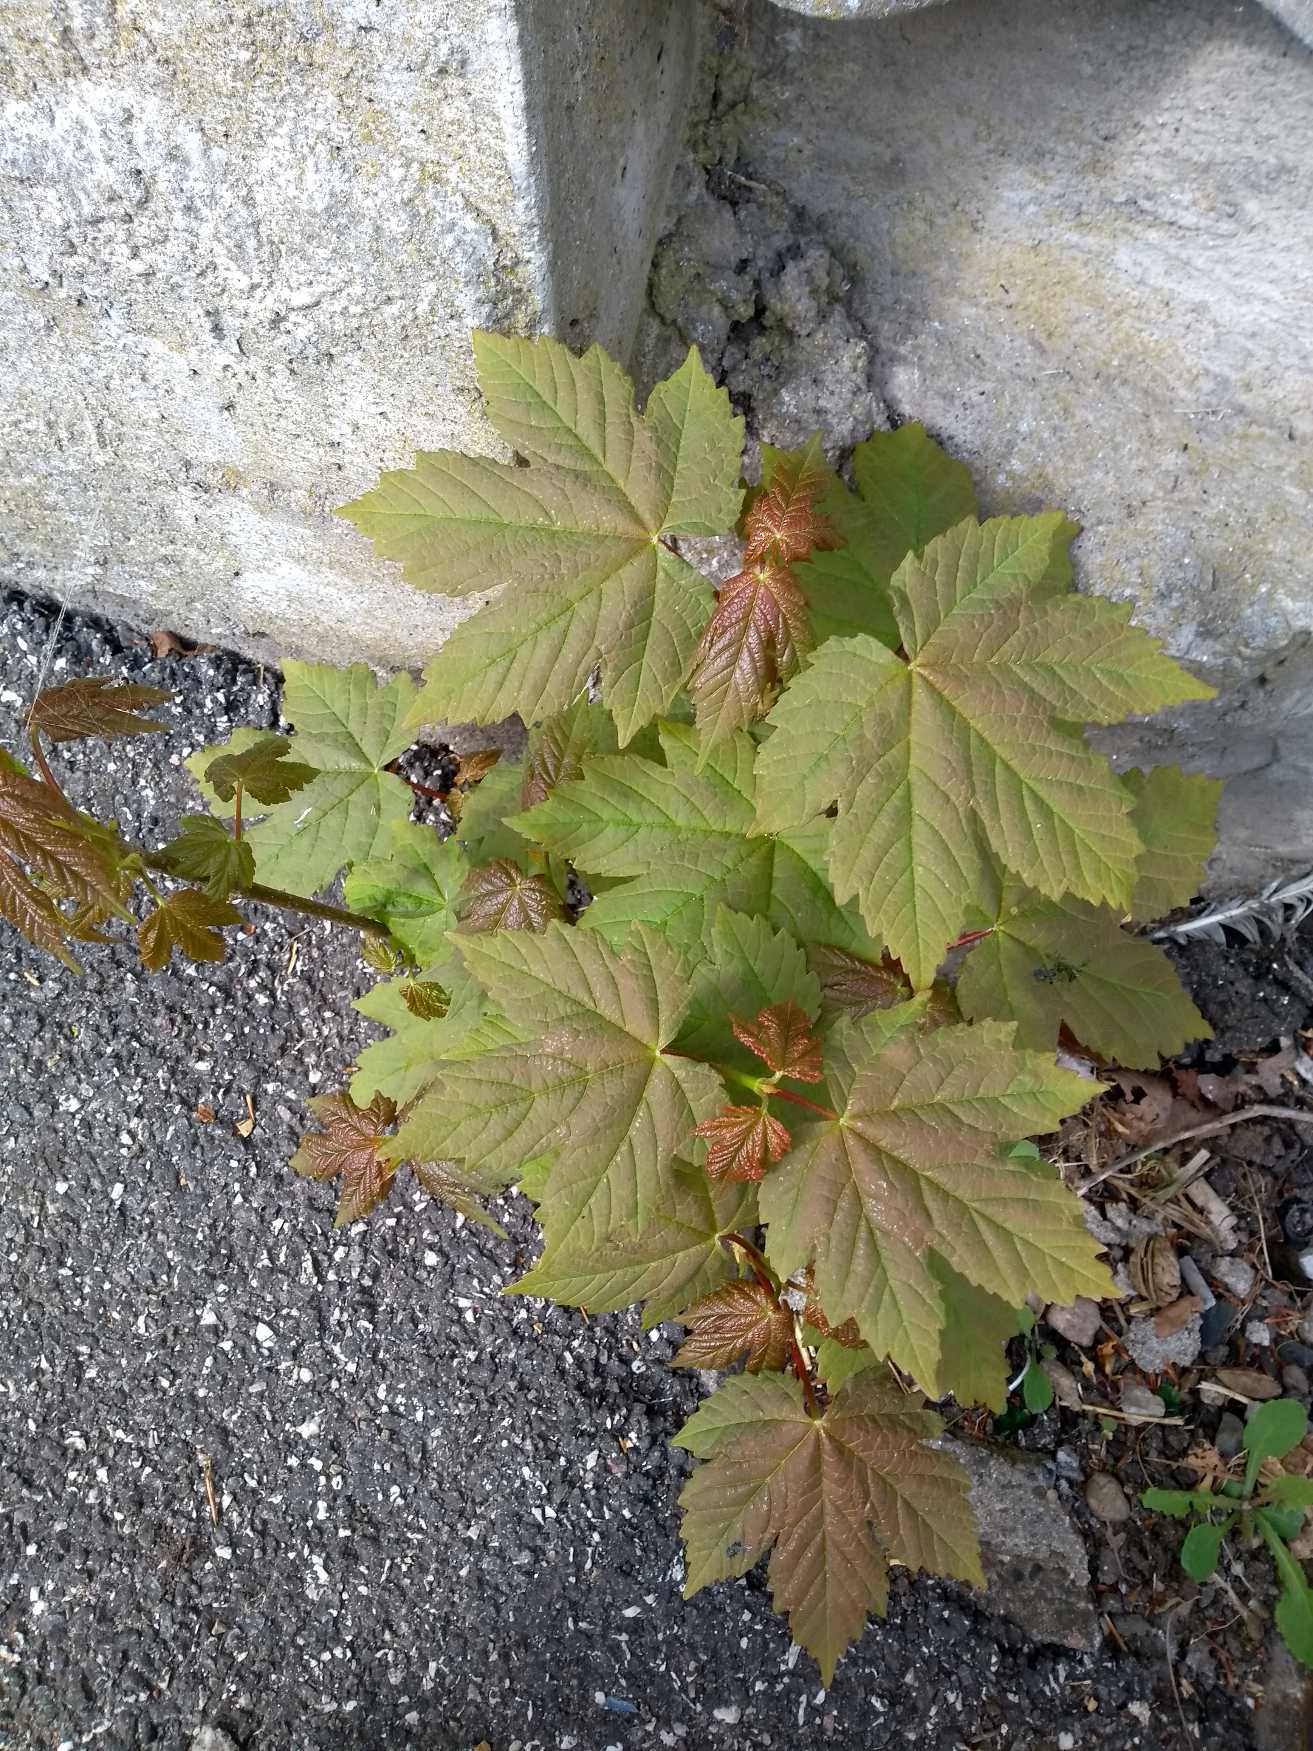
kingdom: Plantae
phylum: Tracheophyta
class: Magnoliopsida
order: Sapindales
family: Sapindaceae
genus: Acer
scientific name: Acer pseudoplatanus
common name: Ahorn
